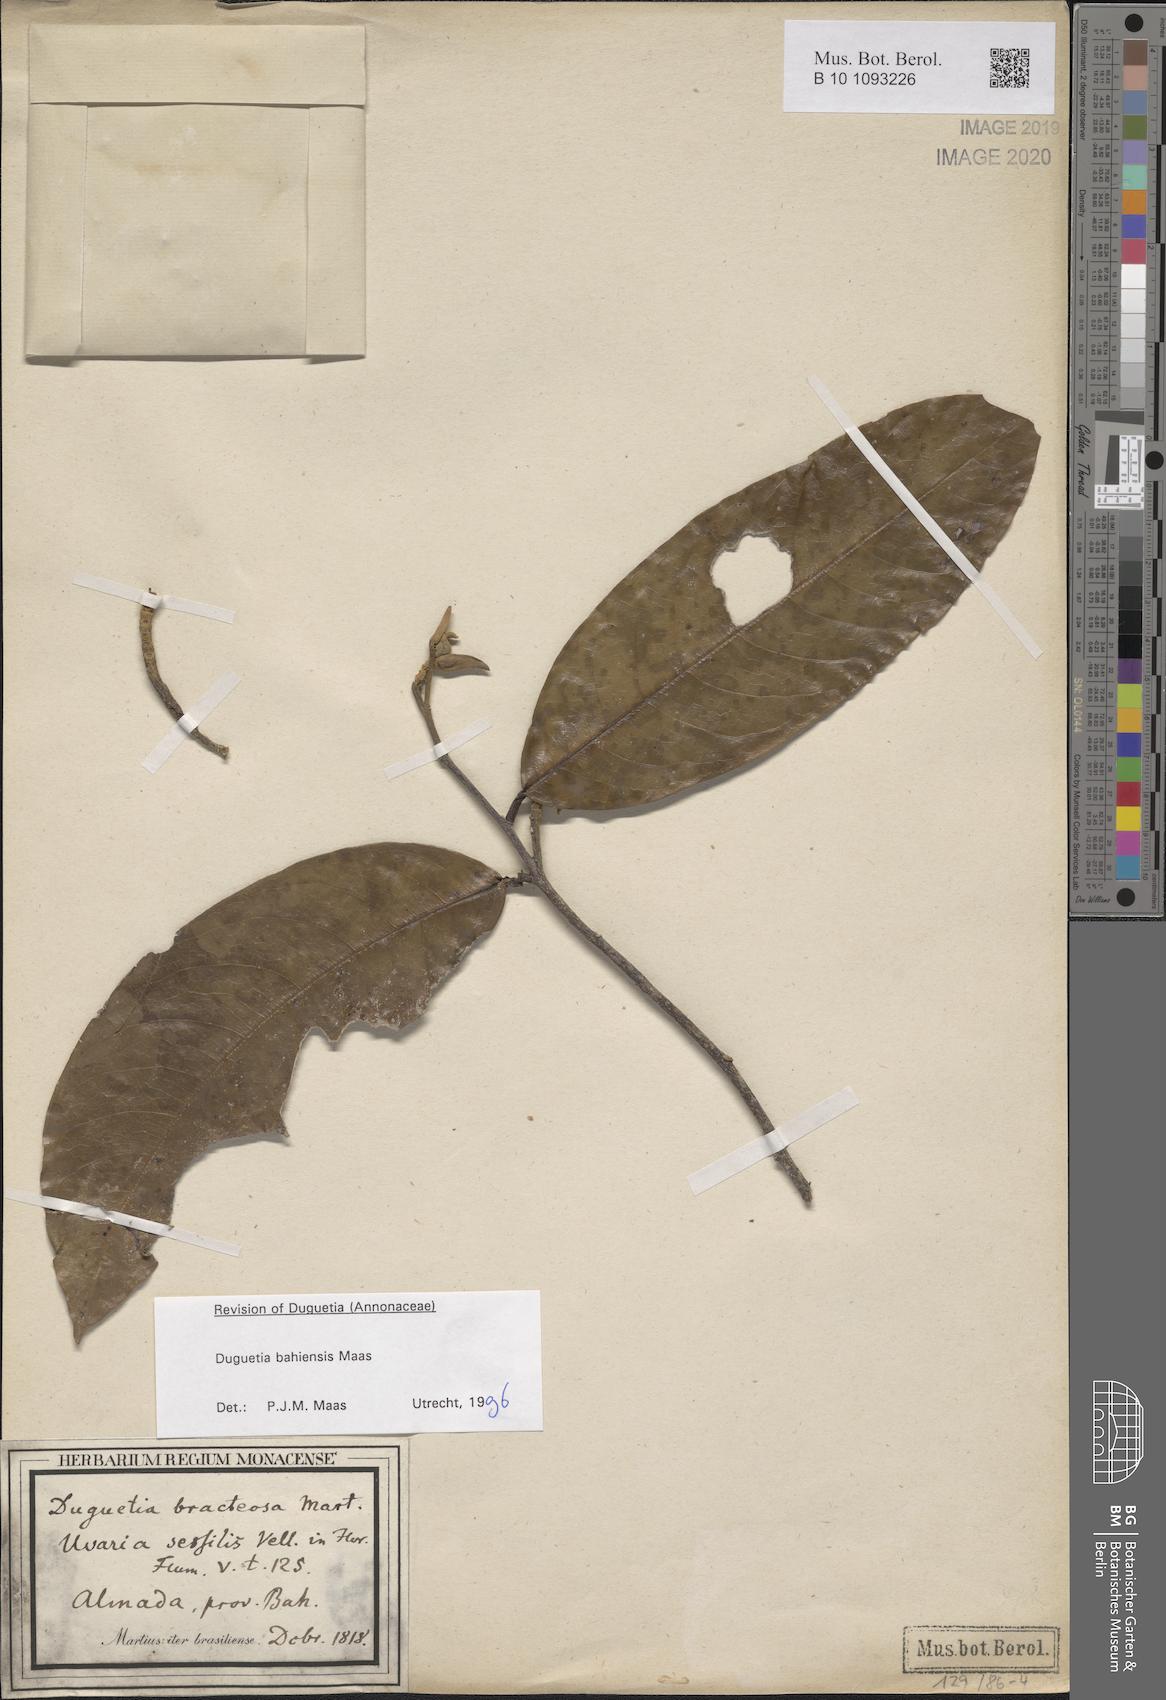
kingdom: Plantae
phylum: Tracheophyta
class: Magnoliopsida
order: Magnoliales
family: Annonaceae
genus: Duguetia
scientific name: Duguetia bahiensis
